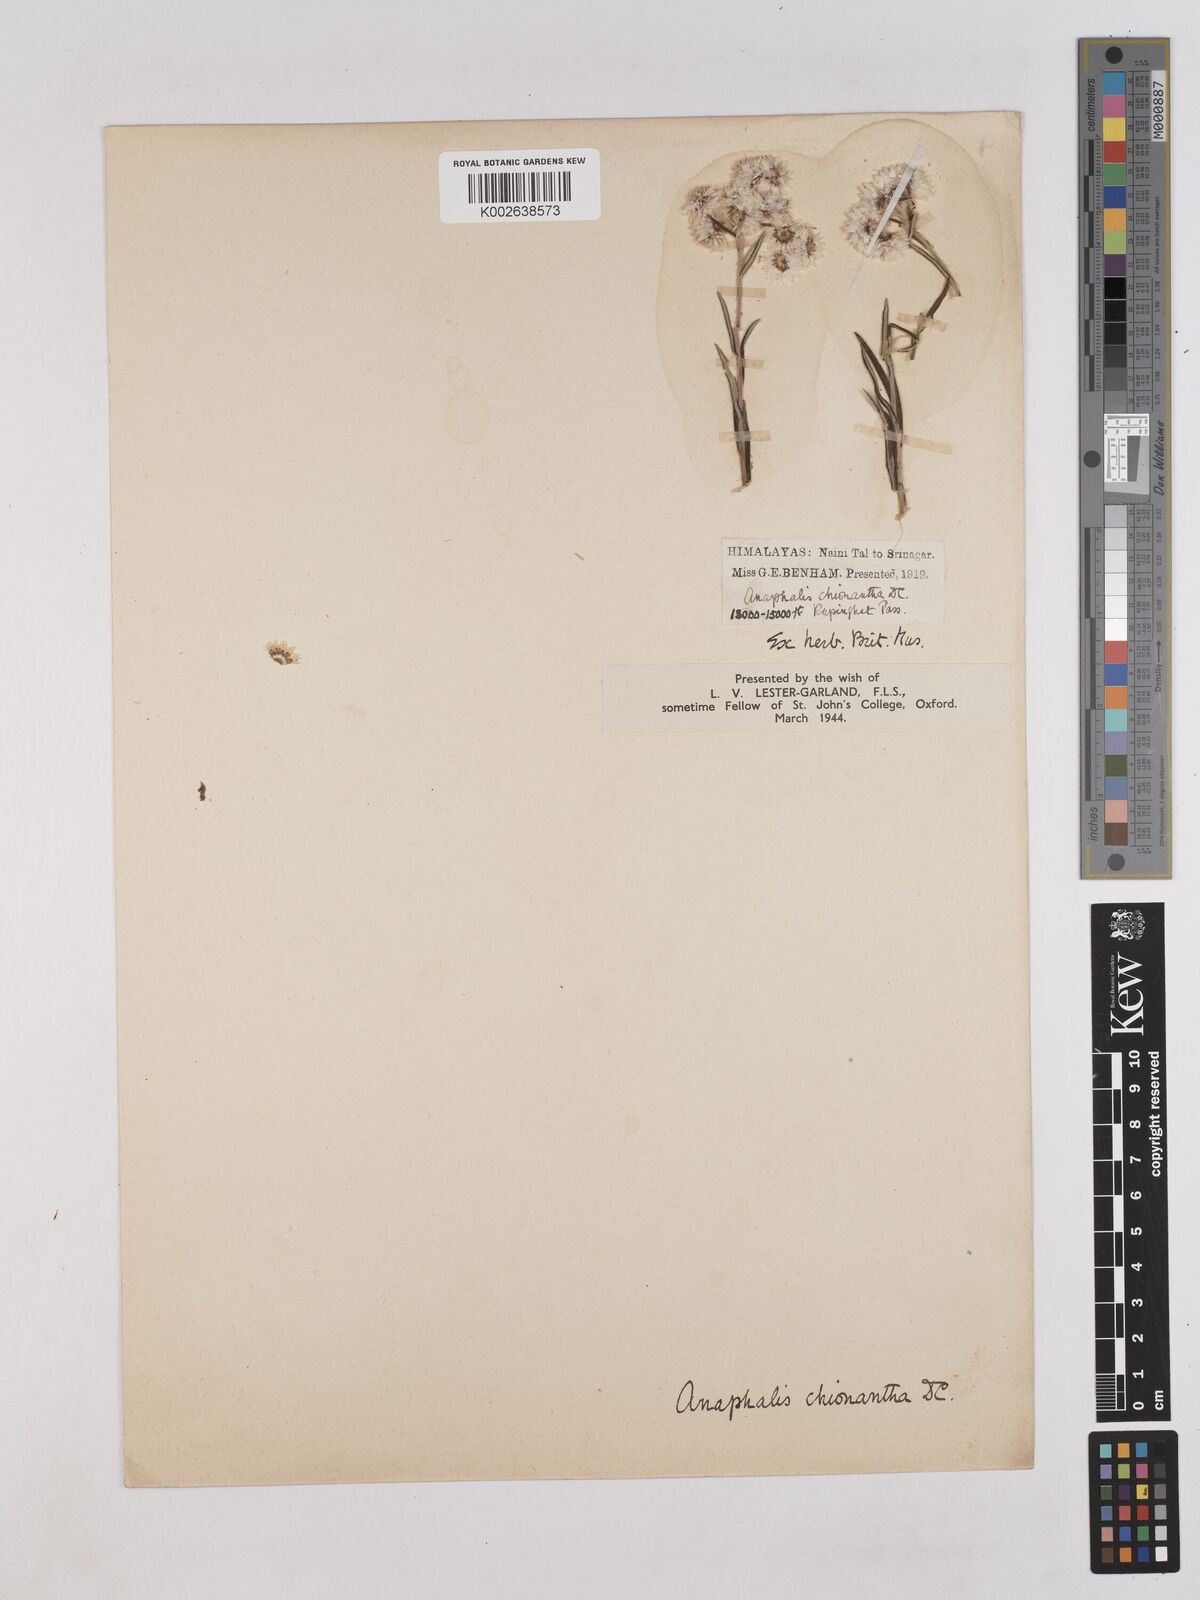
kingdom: Plantae
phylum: Tracheophyta
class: Magnoliopsida
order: Asterales
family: Asteraceae
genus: Anaphalis
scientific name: Anaphalis royleana
